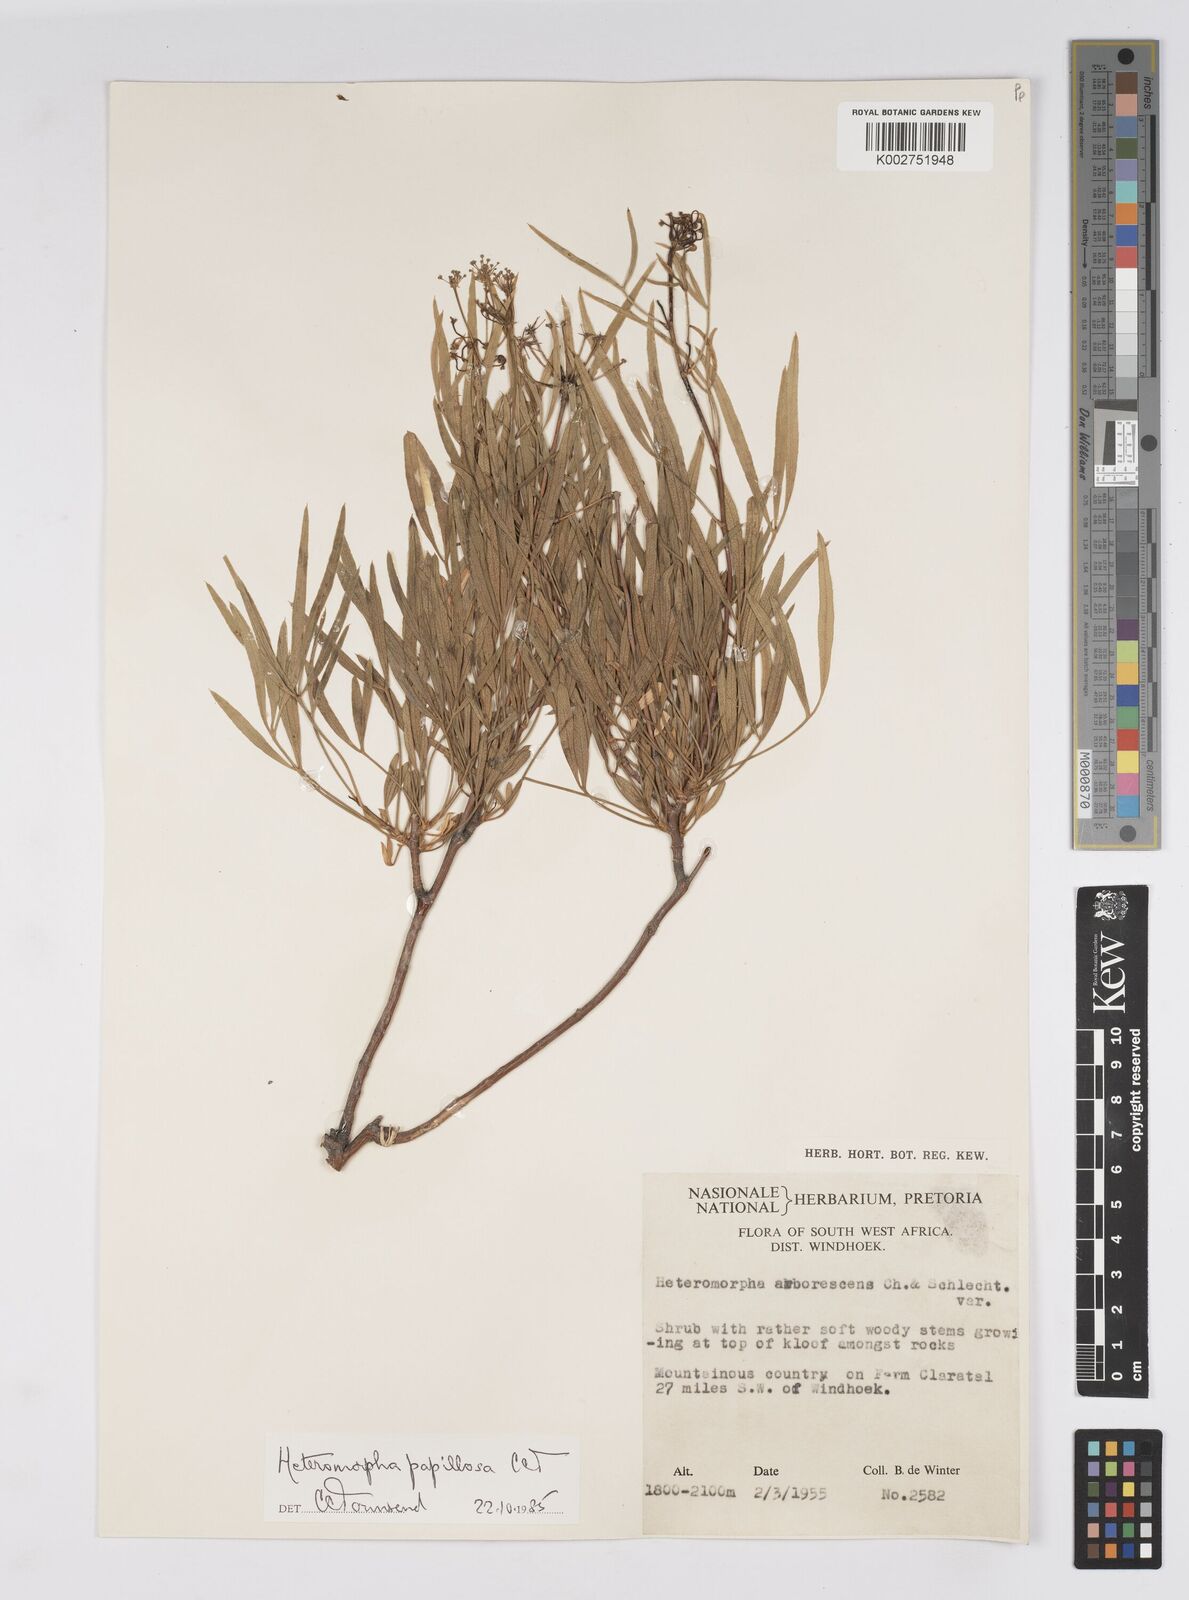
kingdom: Plantae
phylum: Tracheophyta
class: Magnoliopsida
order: Apiales
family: Apiaceae
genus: Heteromorpha
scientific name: Heteromorpha papillosa
